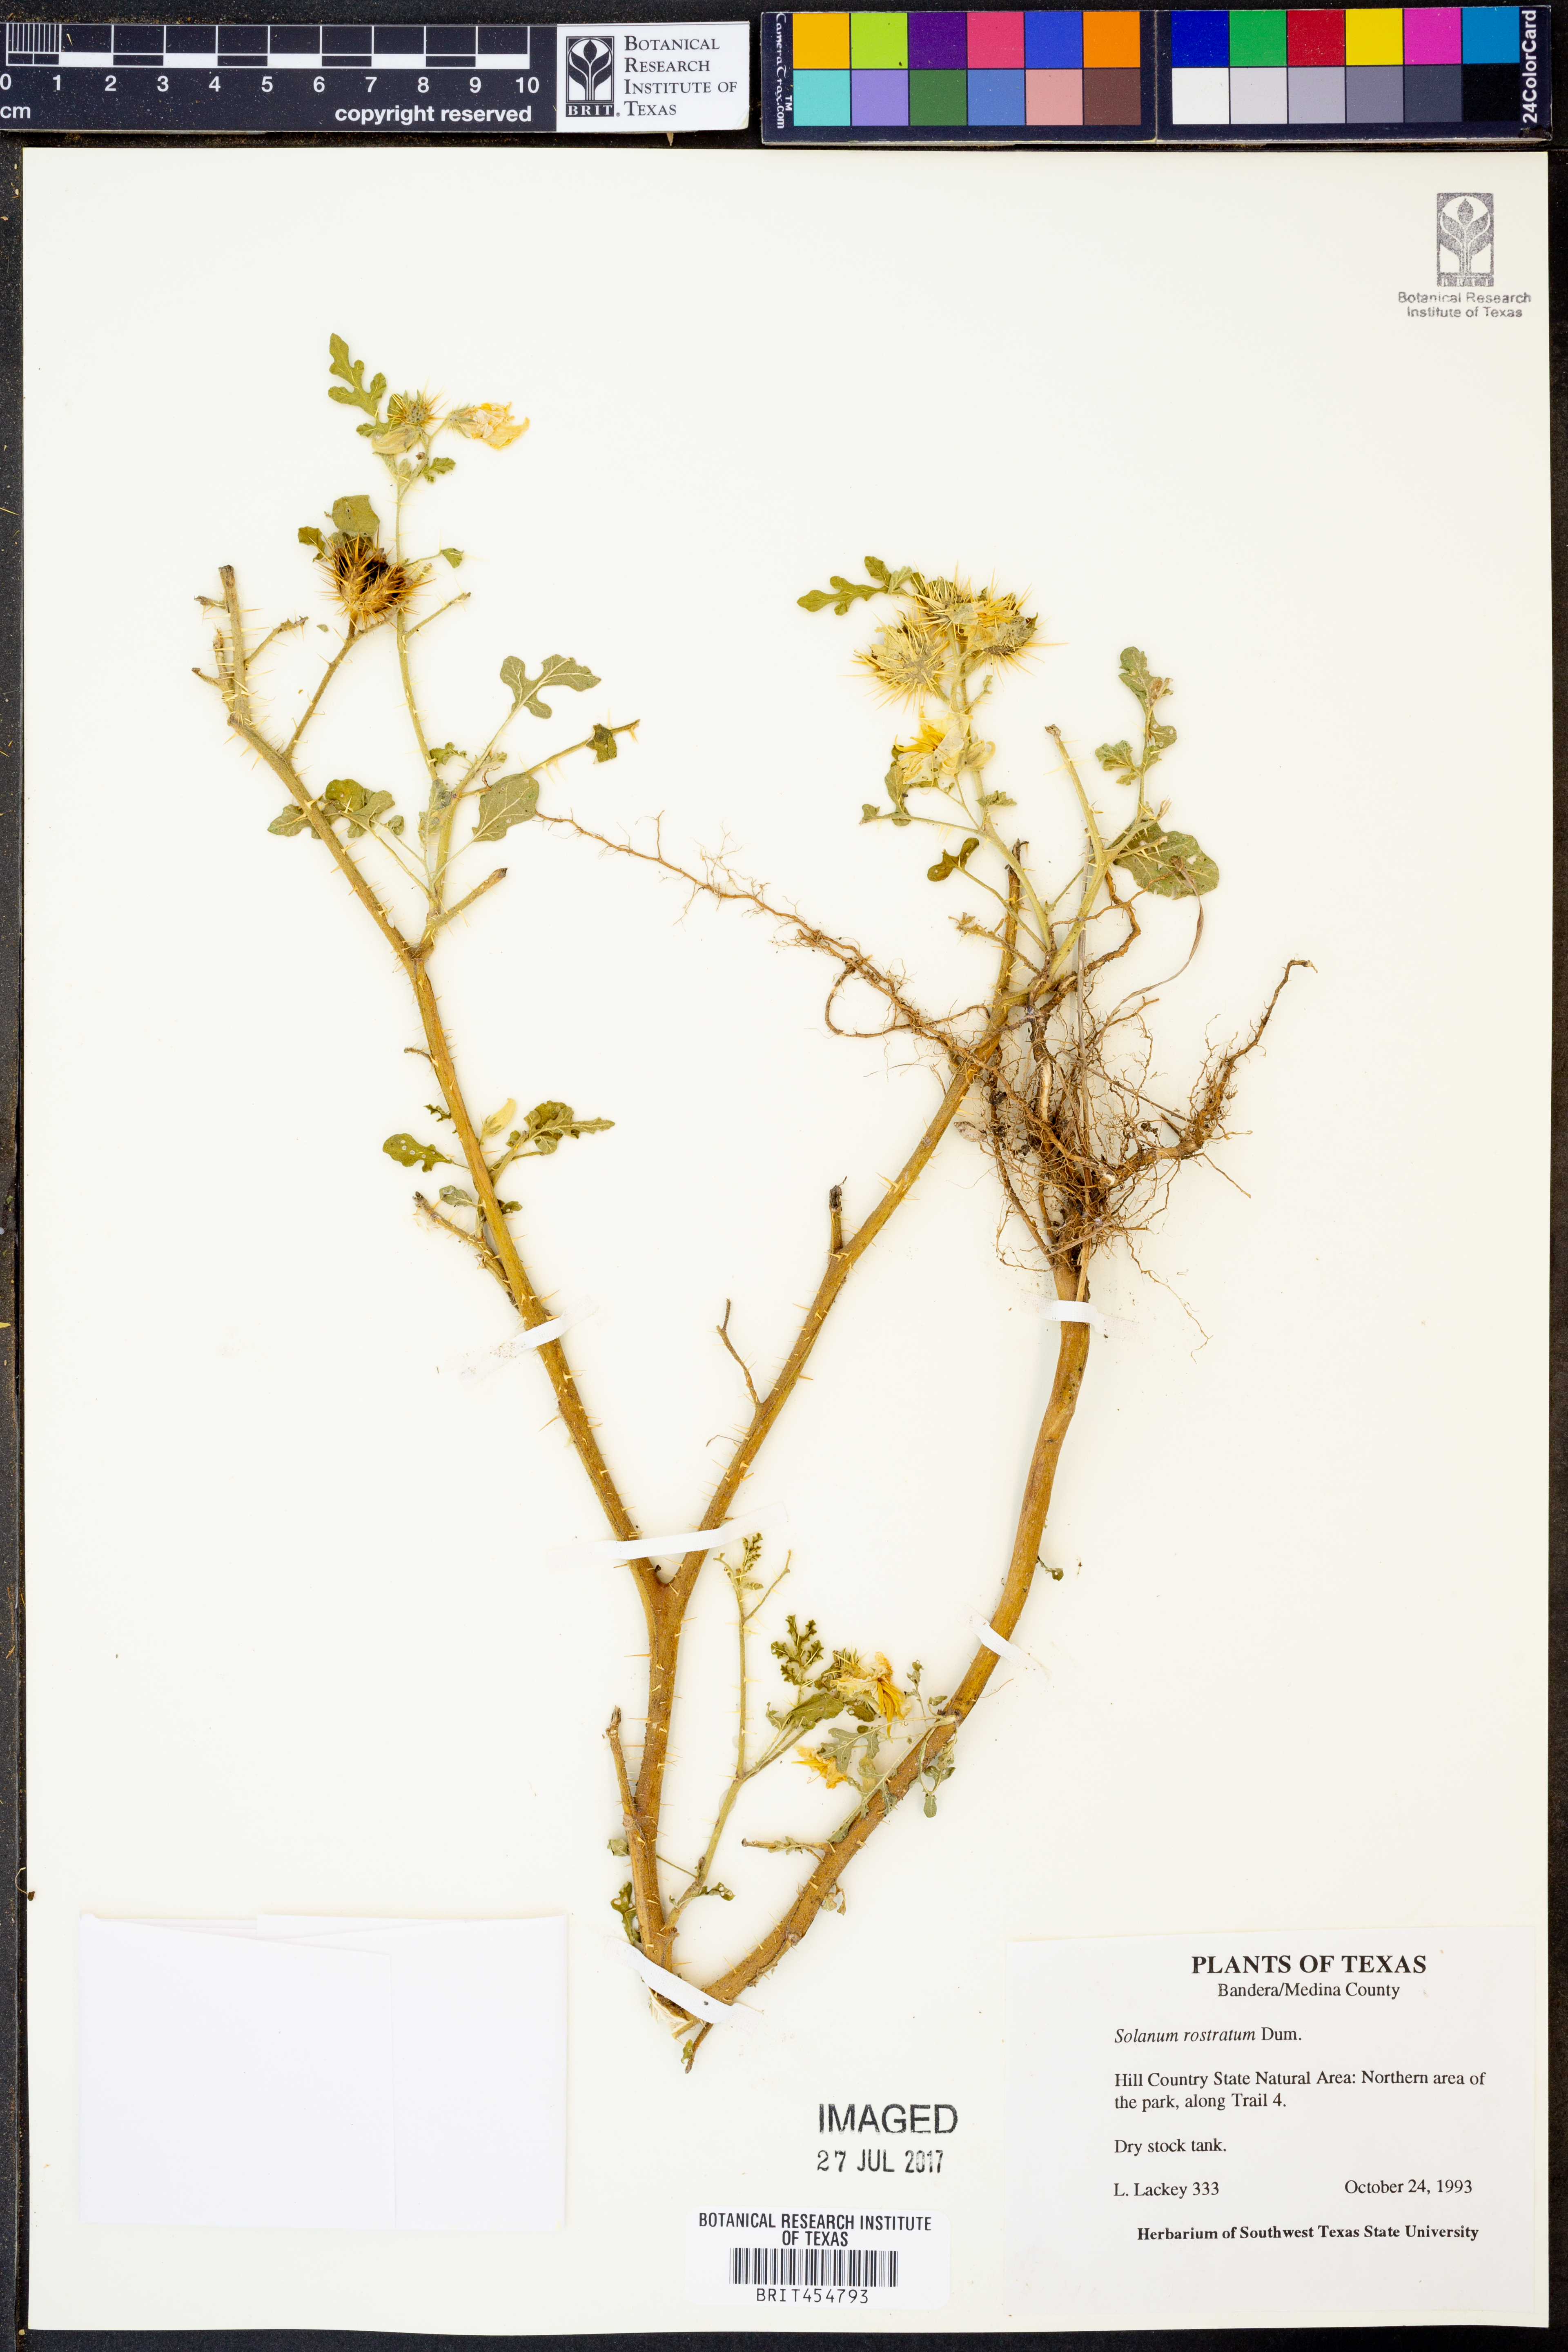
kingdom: Plantae
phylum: Tracheophyta
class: Magnoliopsida
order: Solanales
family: Solanaceae
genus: Solanum
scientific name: Solanum angustifolium
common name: Buffalobur nightshade
